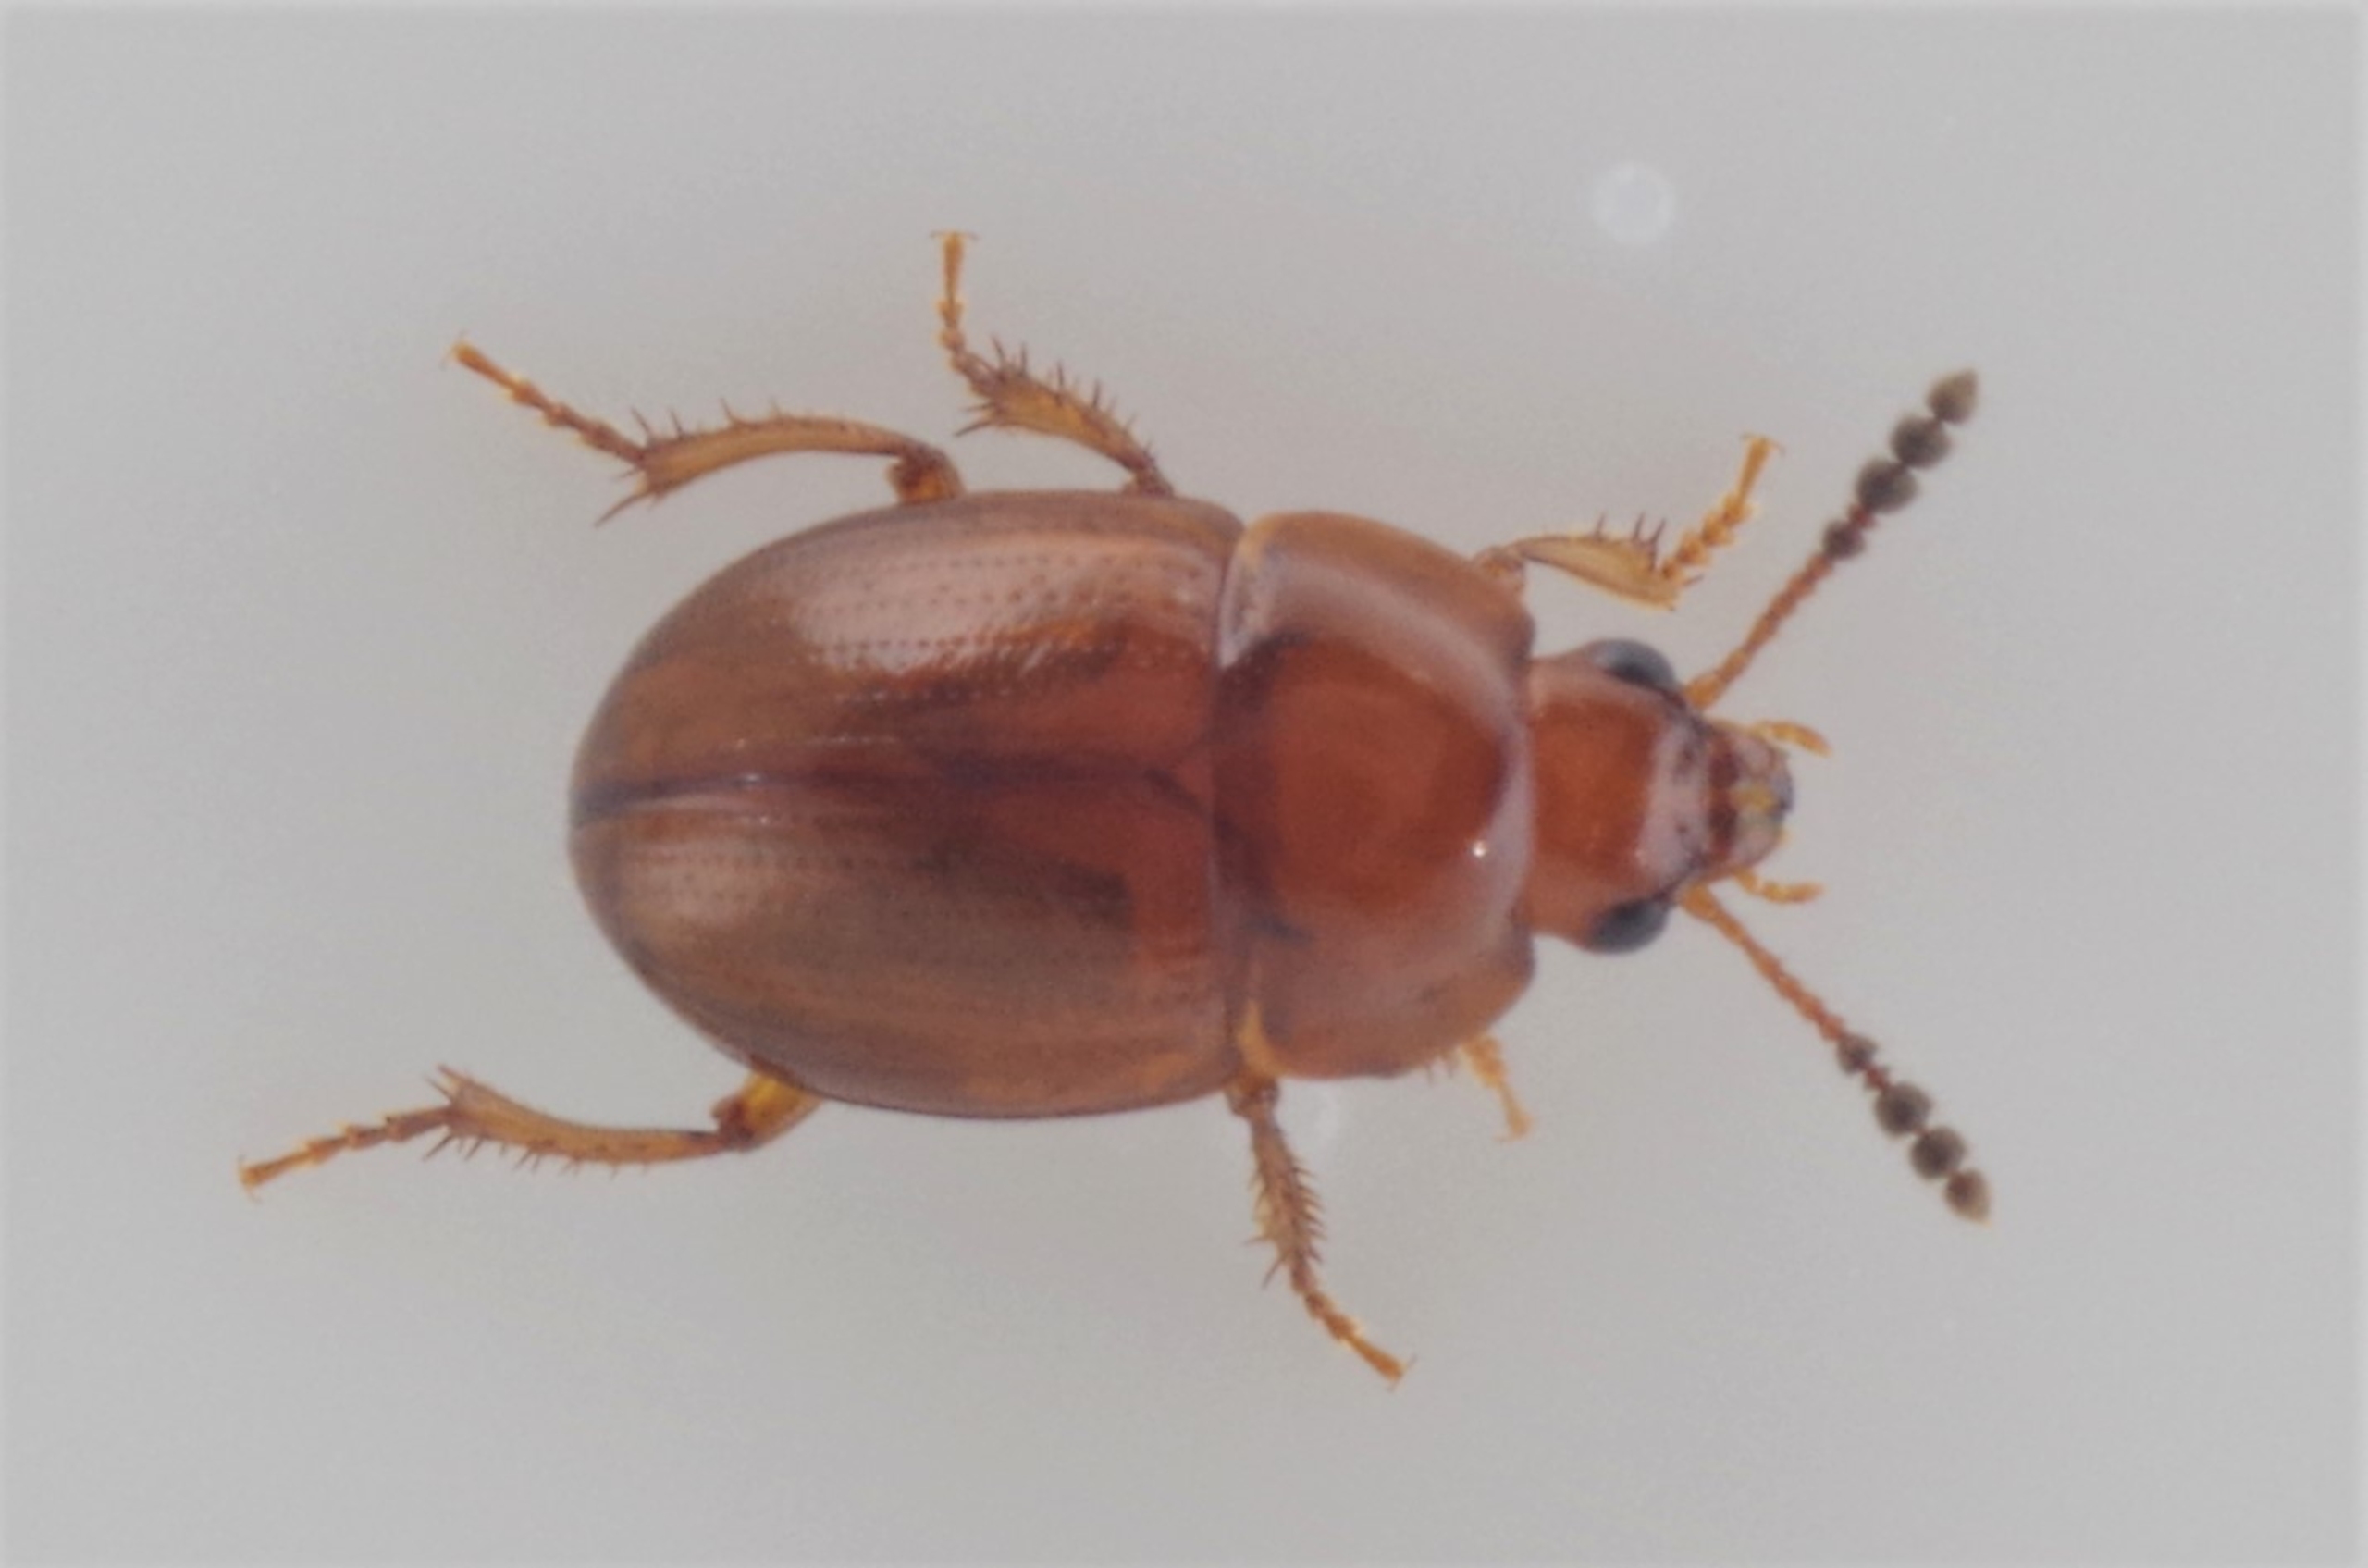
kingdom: Animalia
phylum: Arthropoda
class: Insecta
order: Coleoptera
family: Leiodidae
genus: Leiodes
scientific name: Leiodes rugosa
